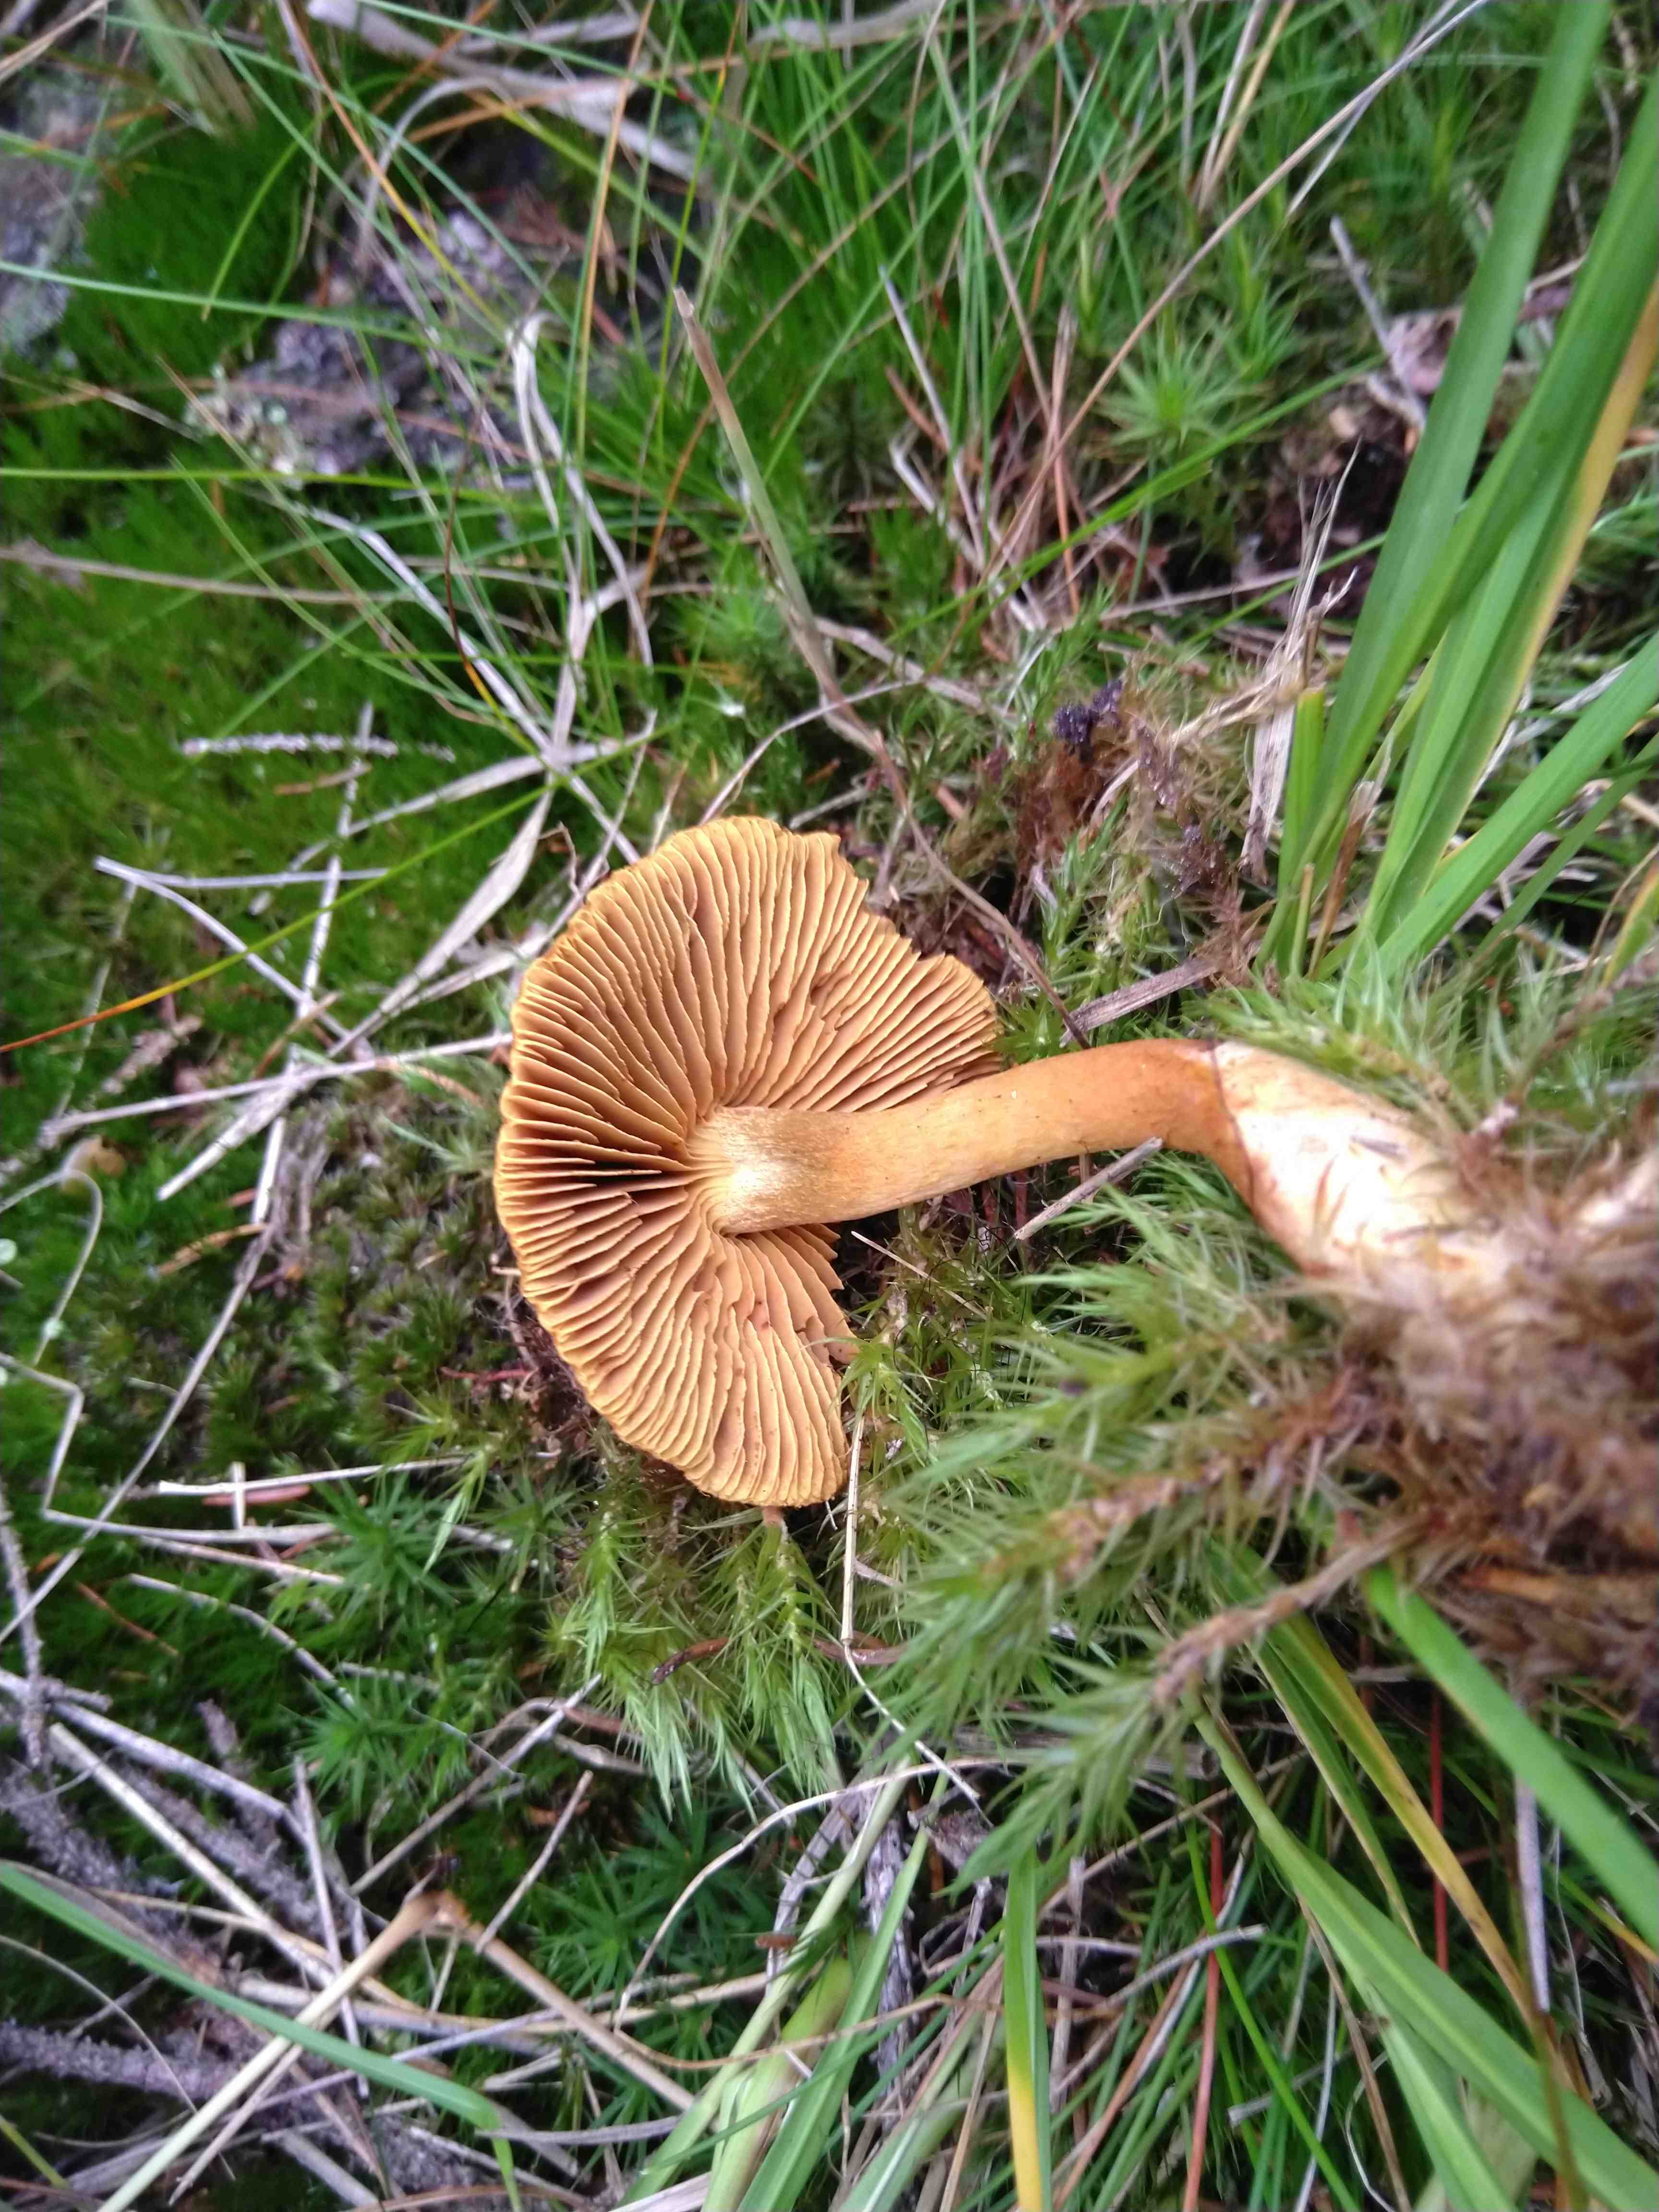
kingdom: Fungi
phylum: Basidiomycota
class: Agaricomycetes
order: Agaricales
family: Cortinariaceae
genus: Cortinarius
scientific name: Cortinarius
